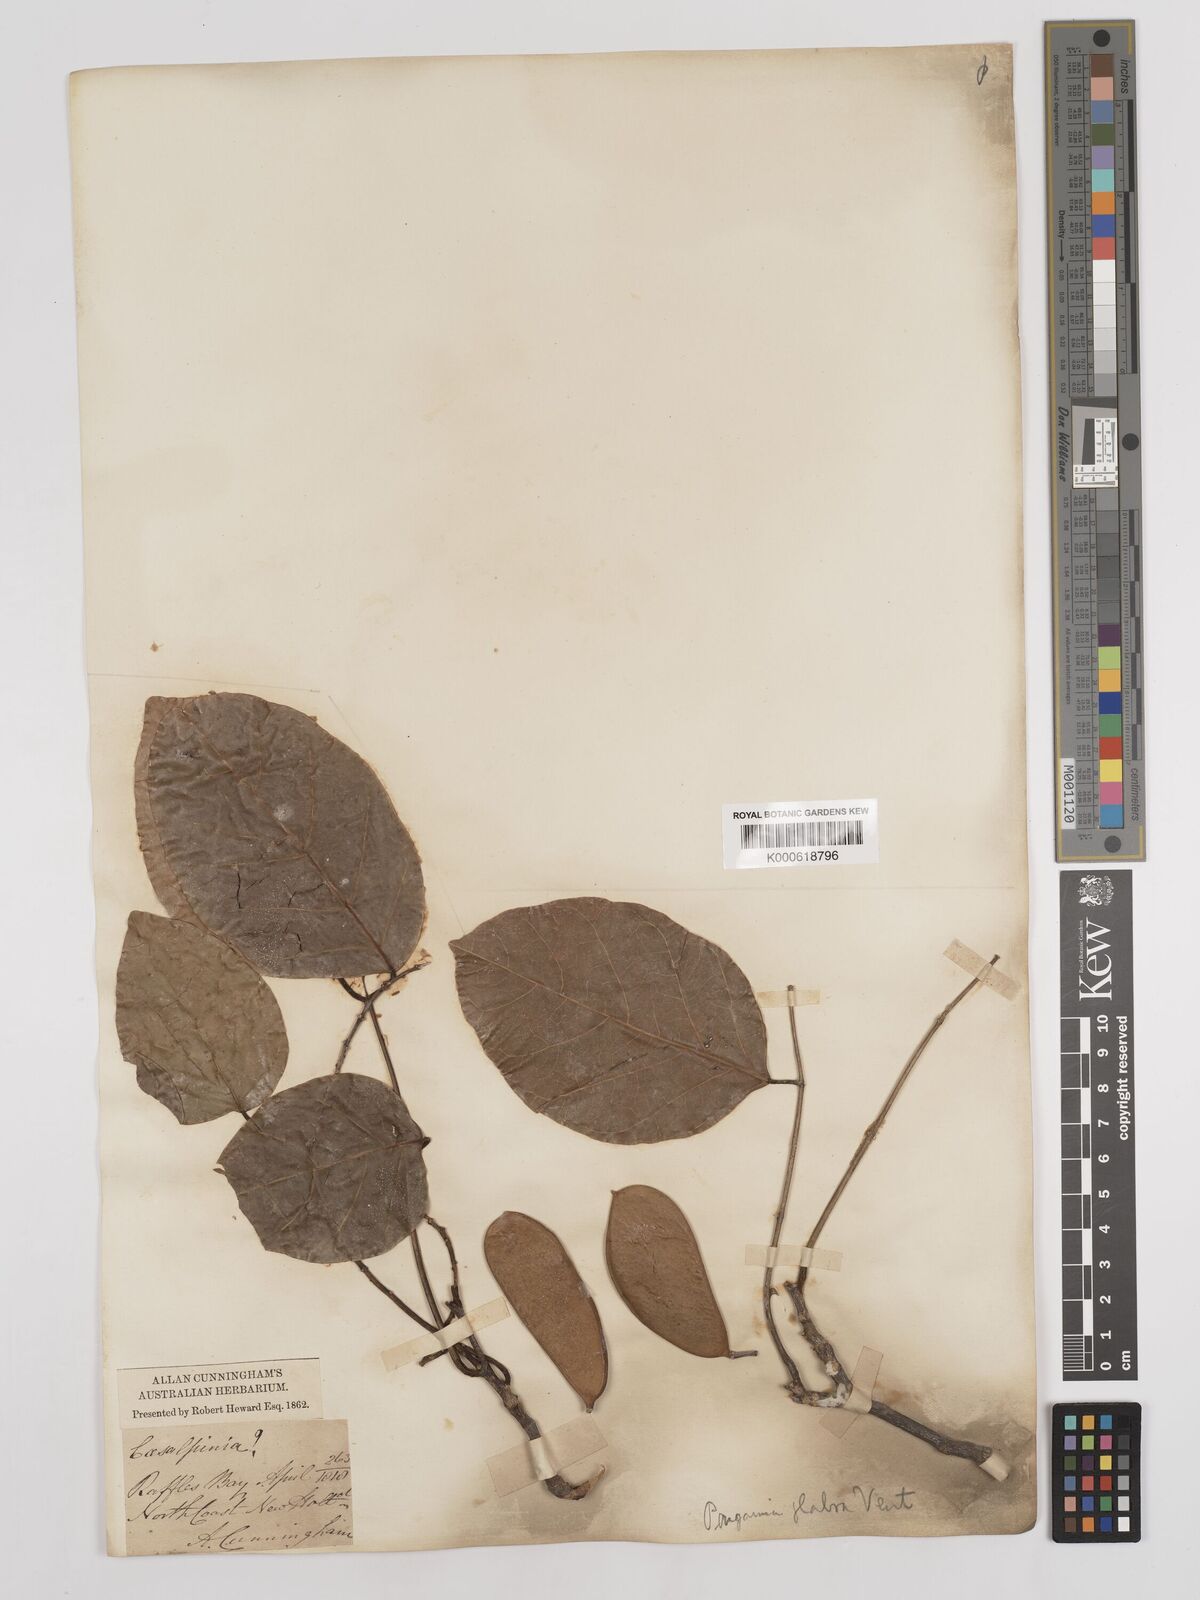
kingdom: Plantae
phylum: Tracheophyta
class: Magnoliopsida
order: Fabales
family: Fabaceae
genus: Pongamia
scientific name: Pongamia pinnata
